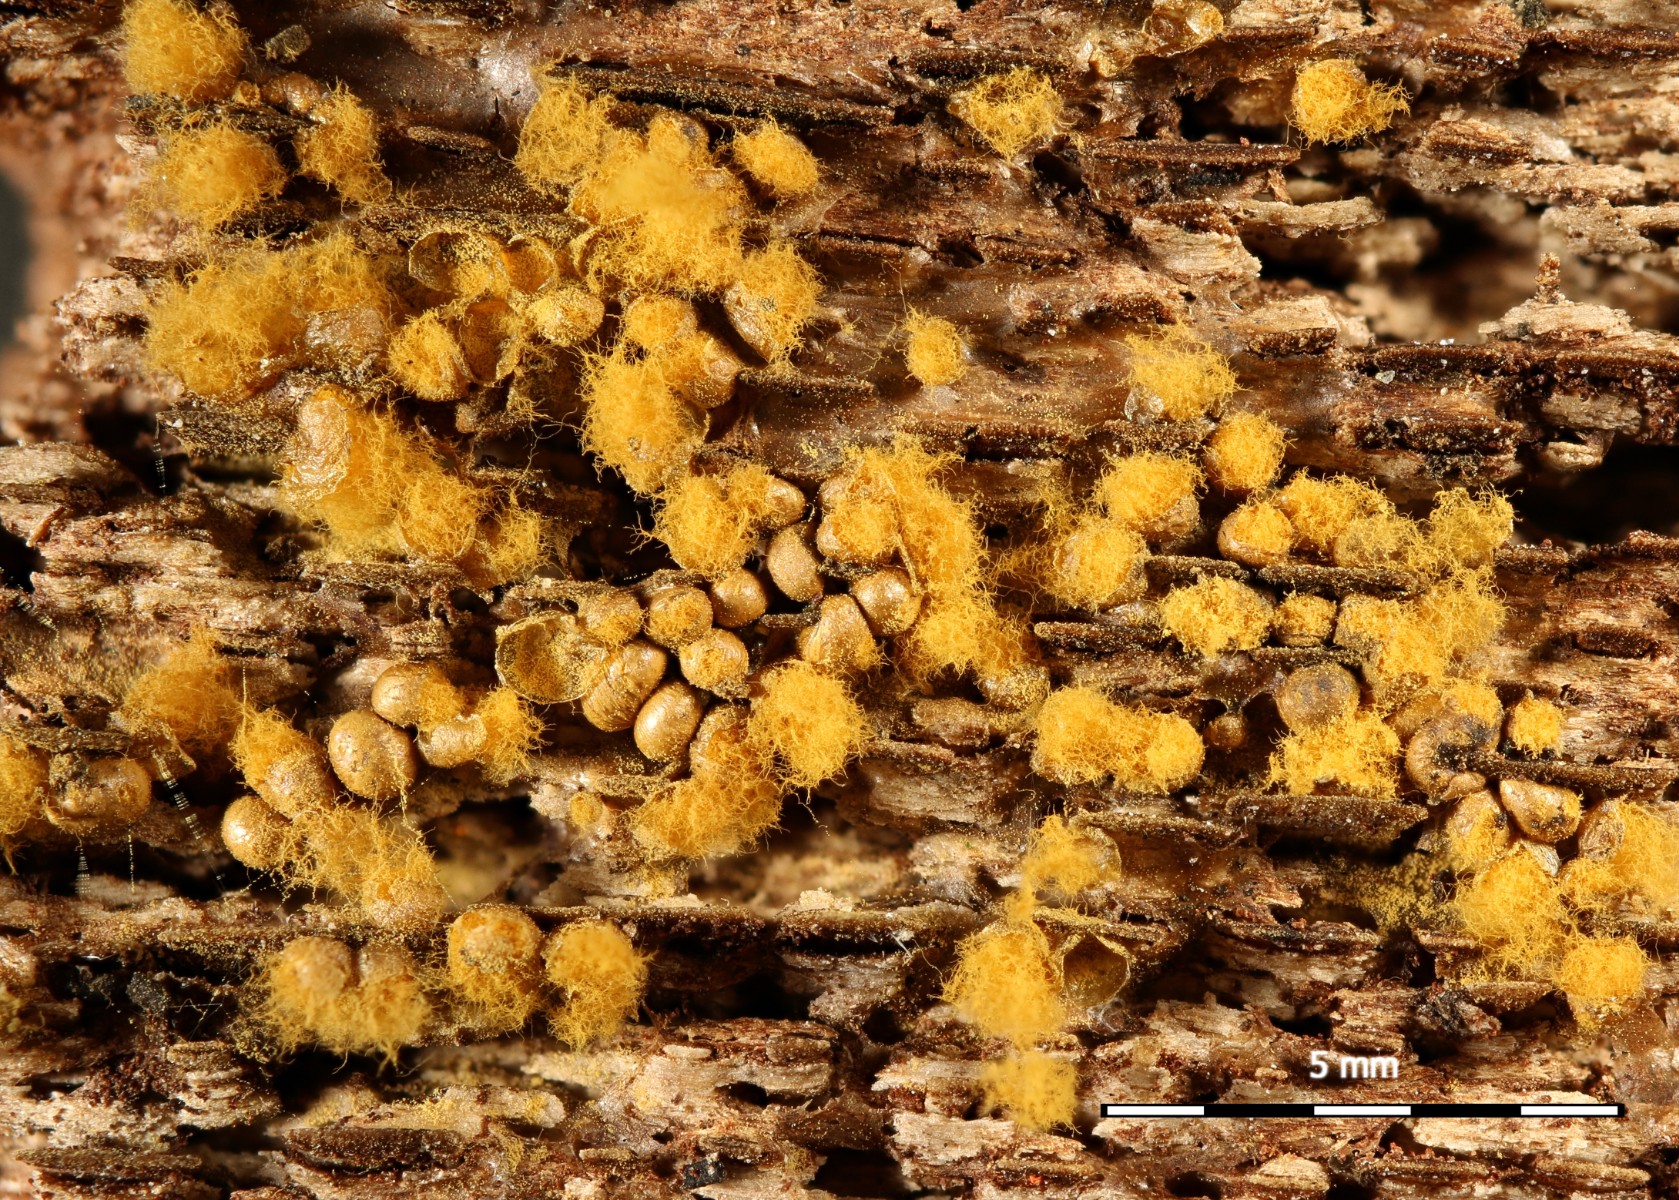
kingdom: Protozoa
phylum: Mycetozoa
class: Myxomycetes
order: Trichiales
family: Trichiaceae
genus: Trichia
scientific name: Trichia varia
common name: foranderlig hårbold
